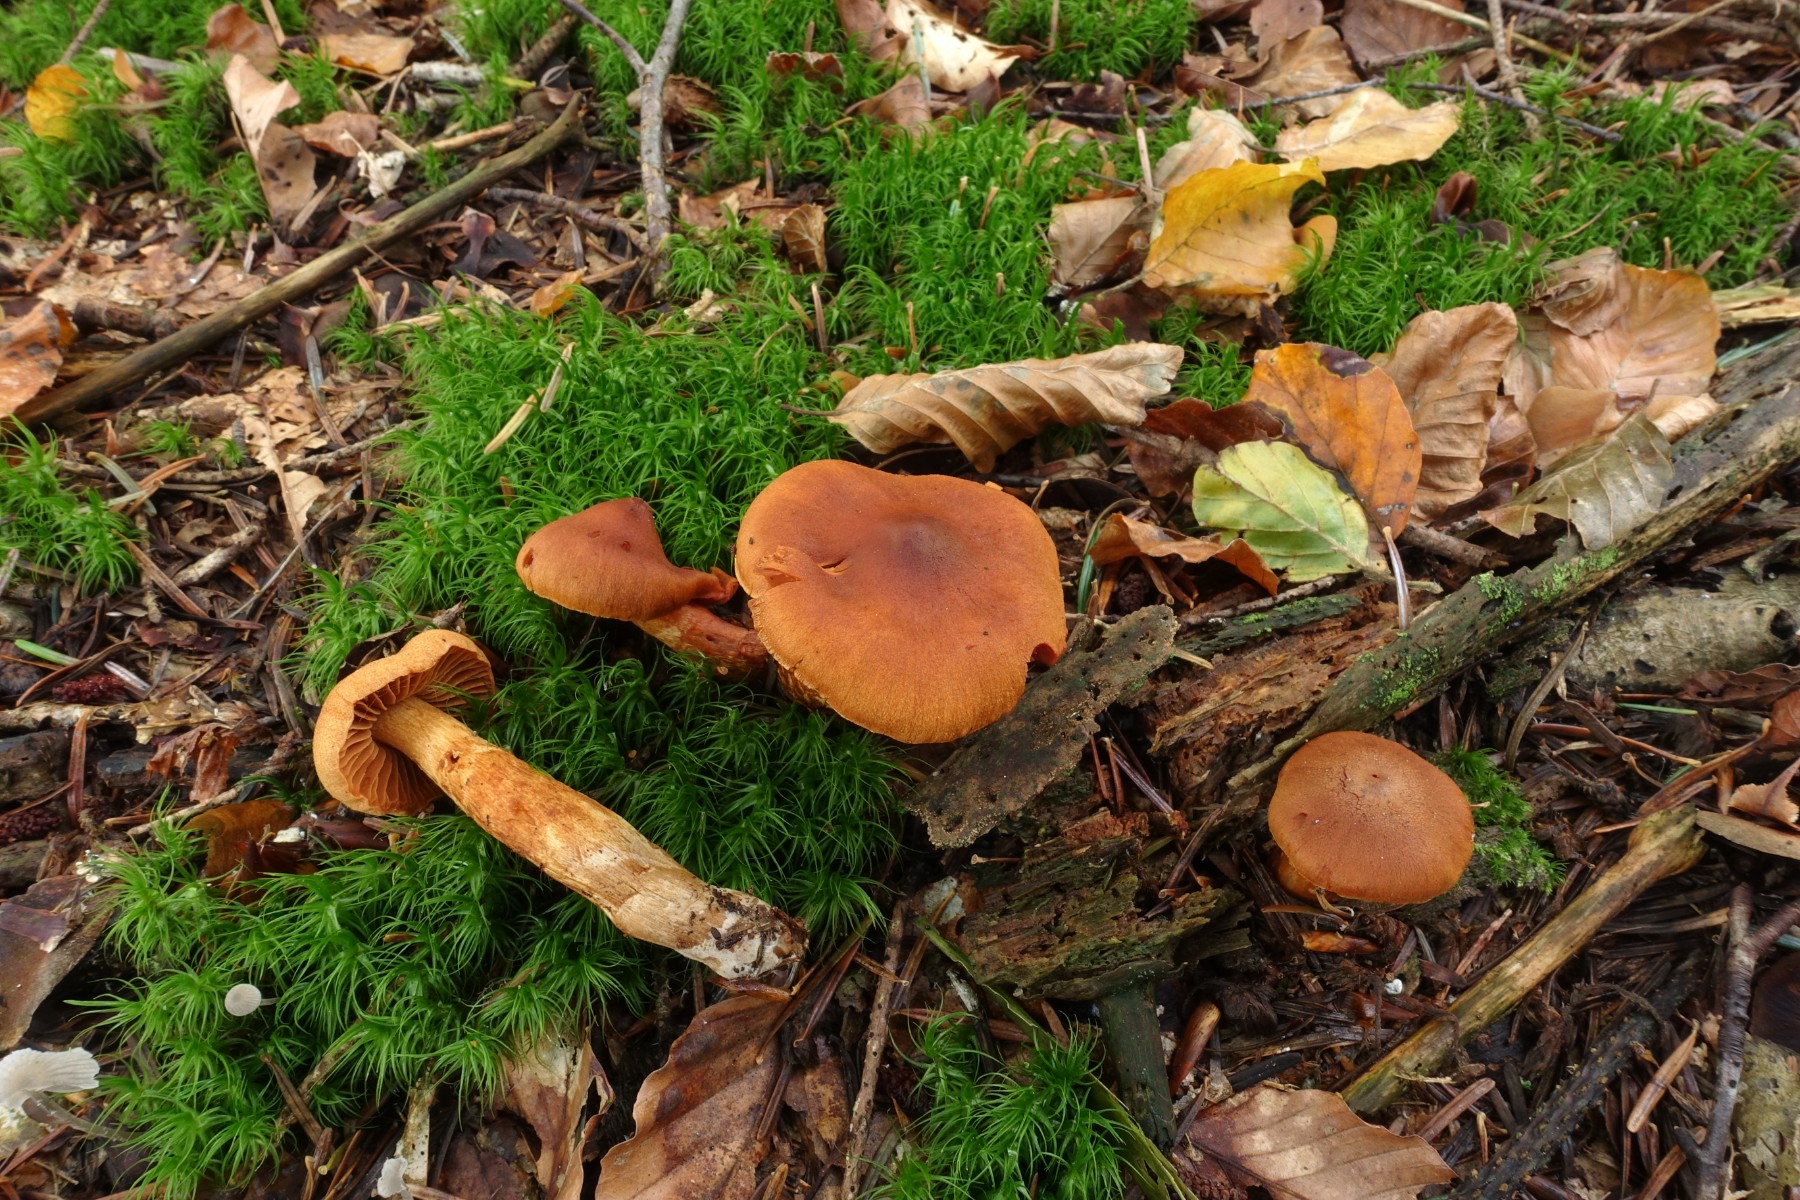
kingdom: Fungi
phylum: Basidiomycota
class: Agaricomycetes
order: Agaricales
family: Cortinariaceae
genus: Cortinarius
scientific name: Cortinarius rubellus
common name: puklet gift-slørhat
